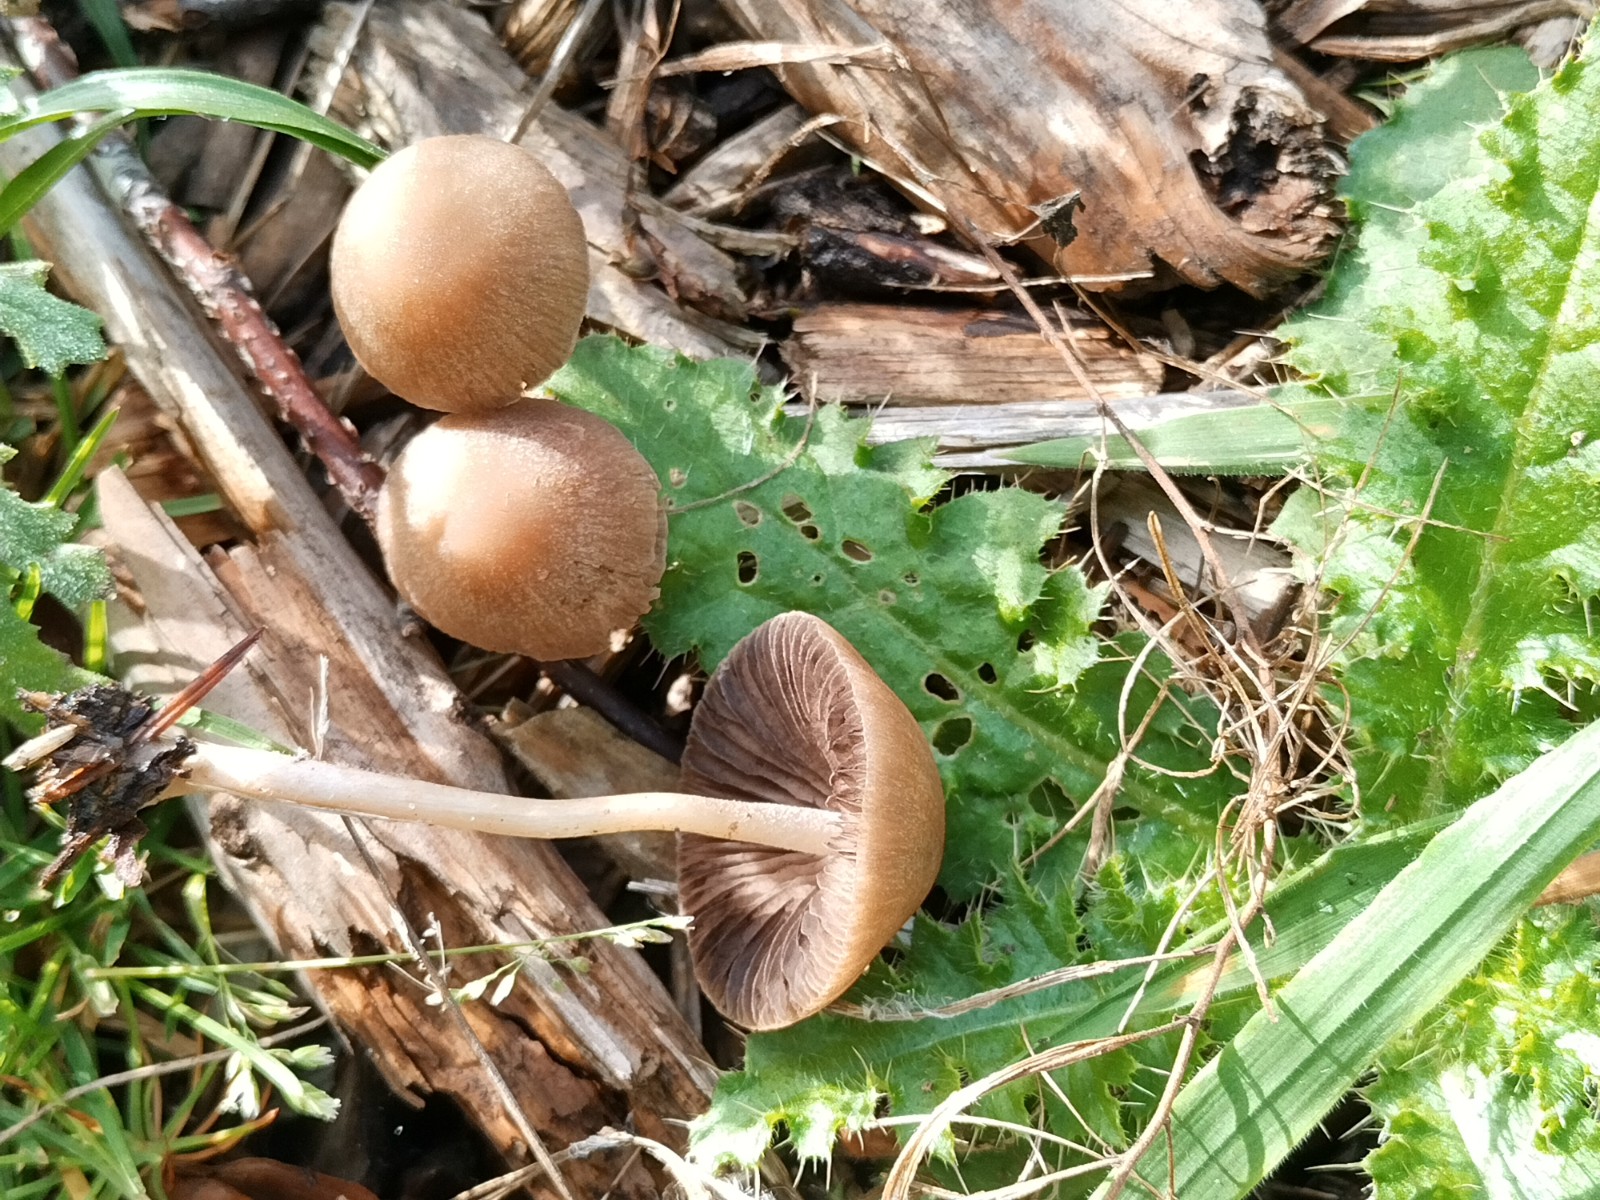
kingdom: Fungi
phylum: Basidiomycota
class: Agaricomycetes
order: Agaricales
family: Psathyrellaceae
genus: Psathyrella
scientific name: Psathyrella
